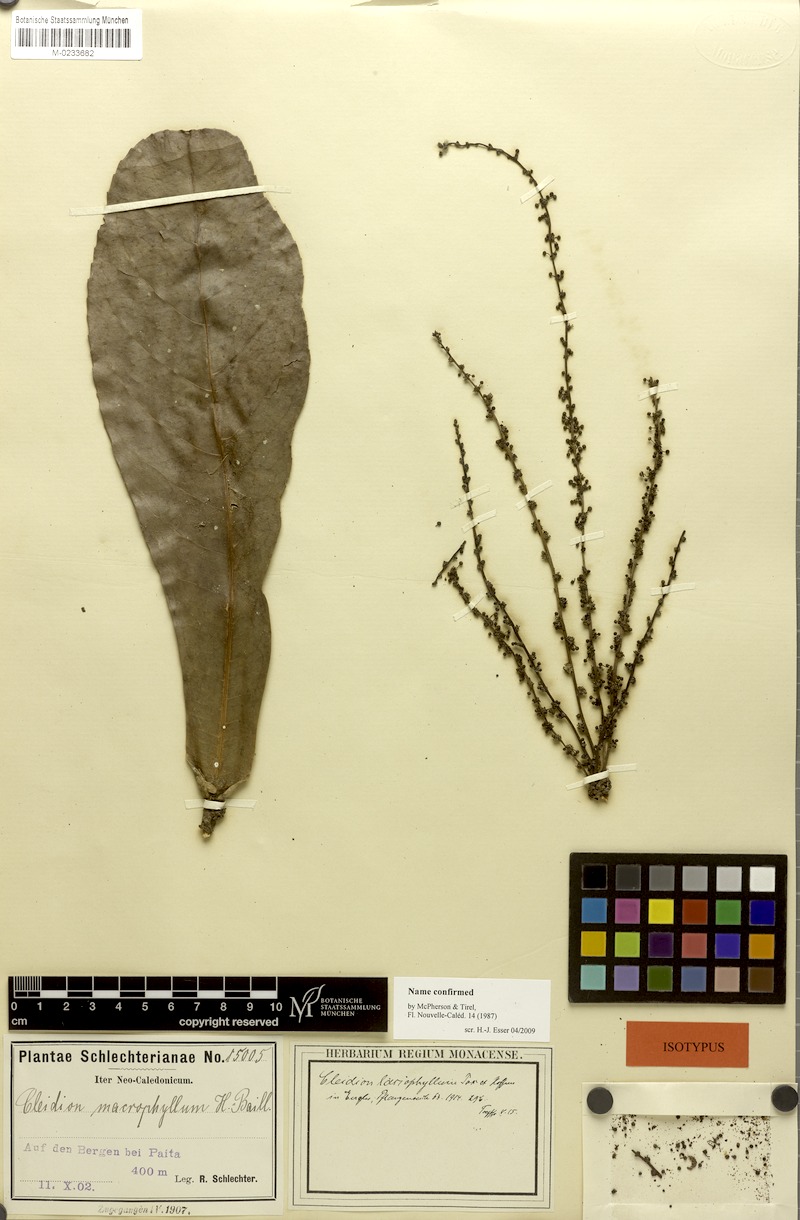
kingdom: Plantae
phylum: Tracheophyta
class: Magnoliopsida
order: Malpighiales
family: Euphorbiaceae
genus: Cleidion
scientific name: Cleidion lasiophyllum
